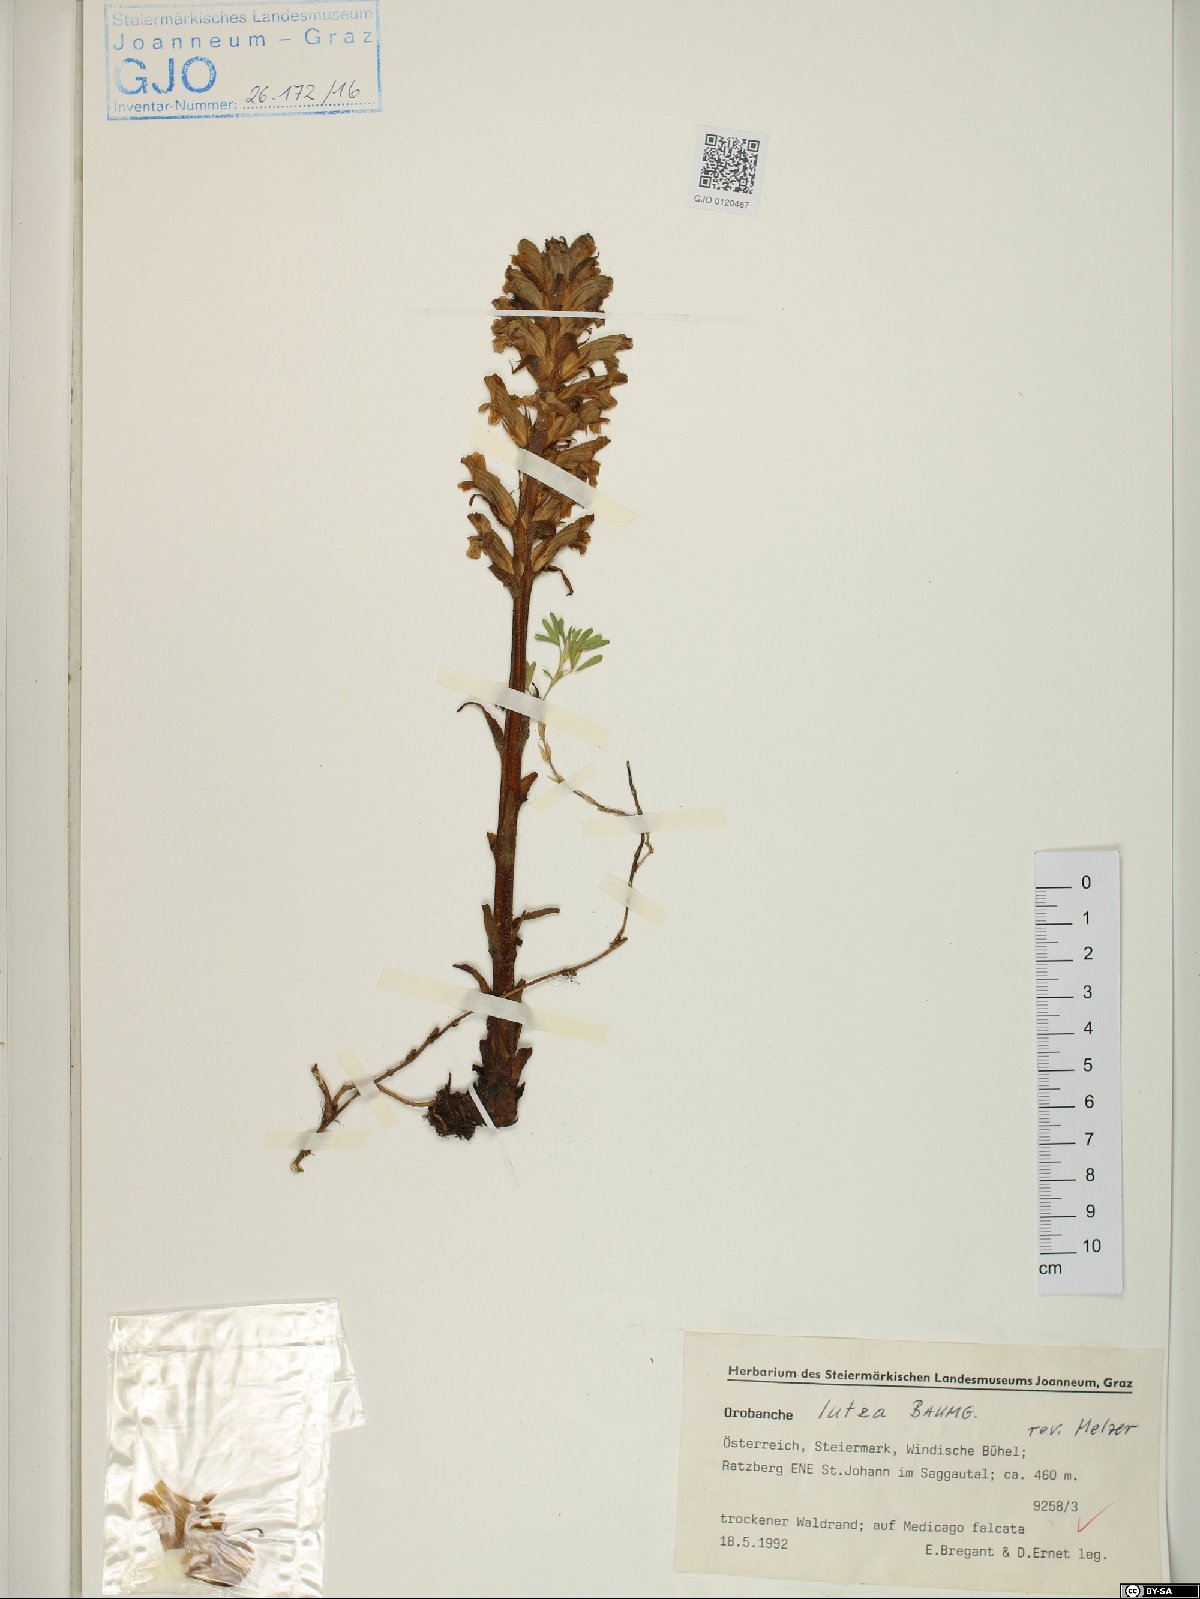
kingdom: Plantae
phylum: Tracheophyta
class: Magnoliopsida
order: Lamiales
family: Orobanchaceae
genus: Orobanche
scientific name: Orobanche lutea
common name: Yellow broomrape
